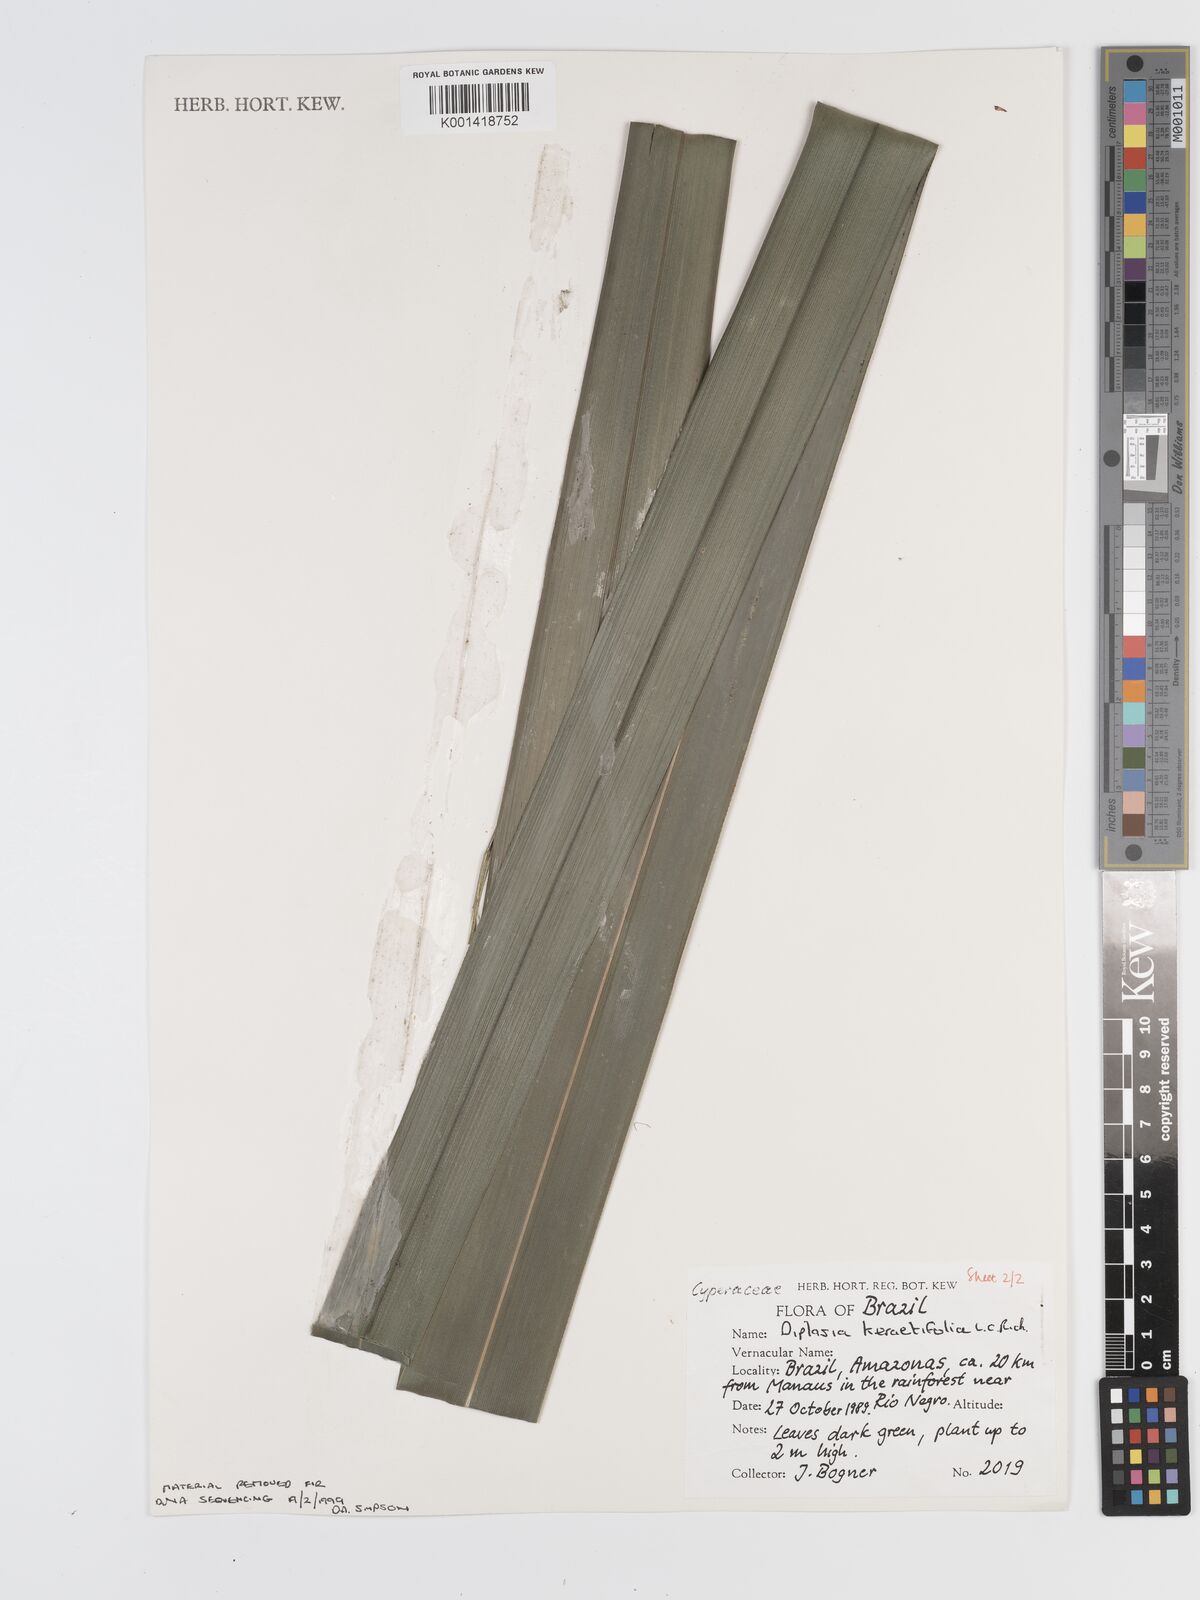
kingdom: Plantae
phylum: Tracheophyta
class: Liliopsida
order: Poales
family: Cyperaceae
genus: Diplasia
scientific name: Diplasia karatifolia
